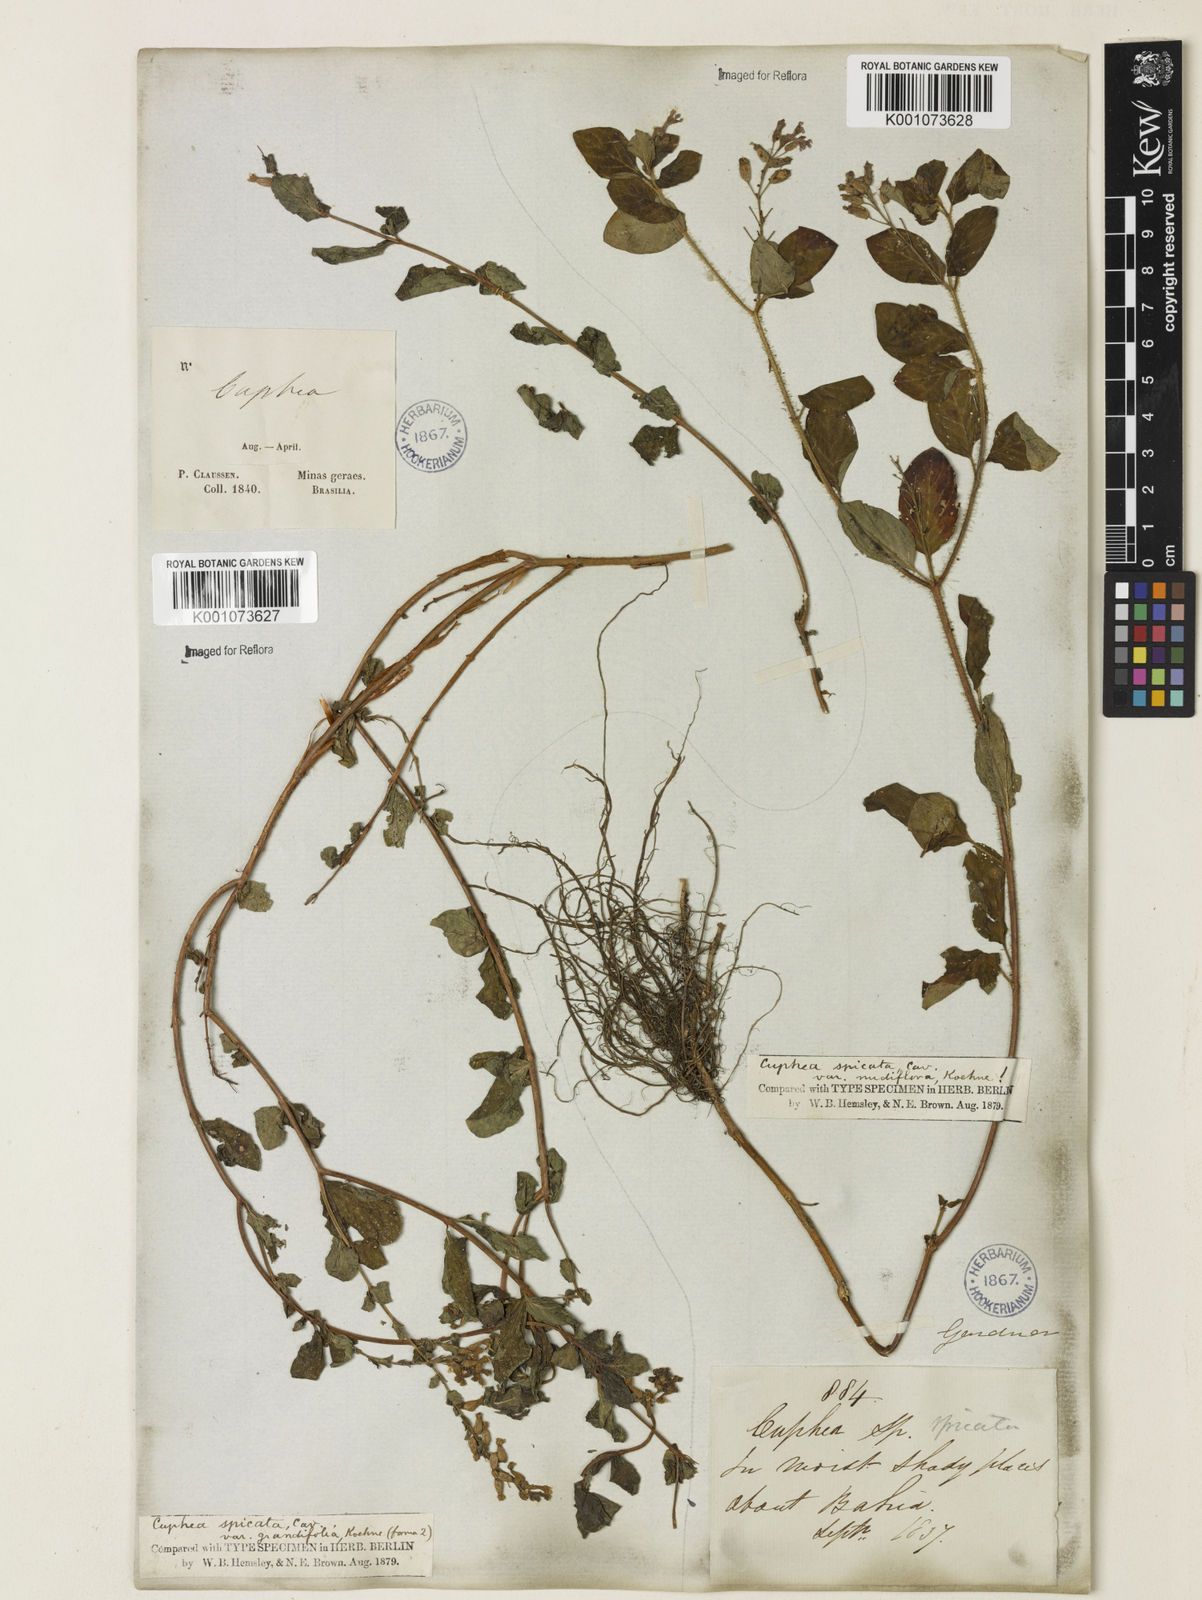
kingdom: Plantae
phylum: Tracheophyta
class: Magnoliopsida
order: Myrtales
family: Lythraceae
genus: Cuphea
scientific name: Cuphea racemosa
